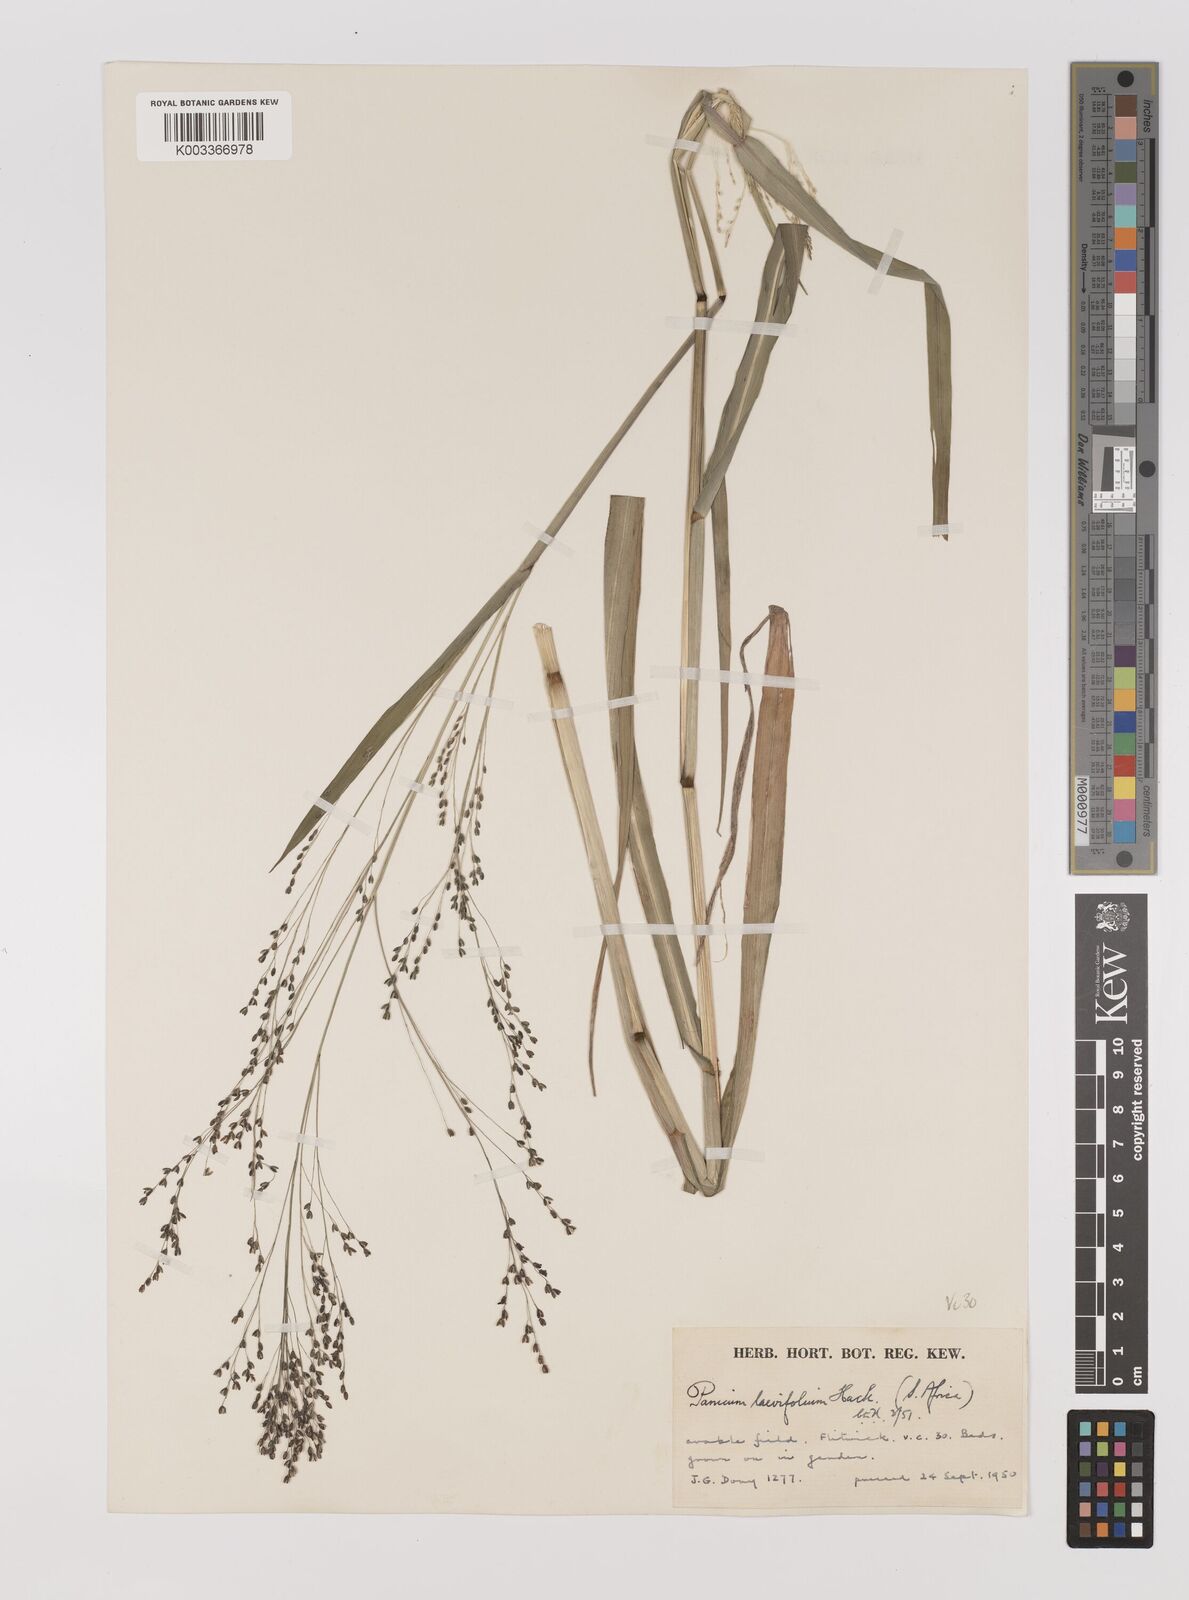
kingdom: Plantae
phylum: Tracheophyta
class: Liliopsida
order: Poales
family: Poaceae
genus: Panicum
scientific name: Panicum schinzii
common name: Sweet grass
